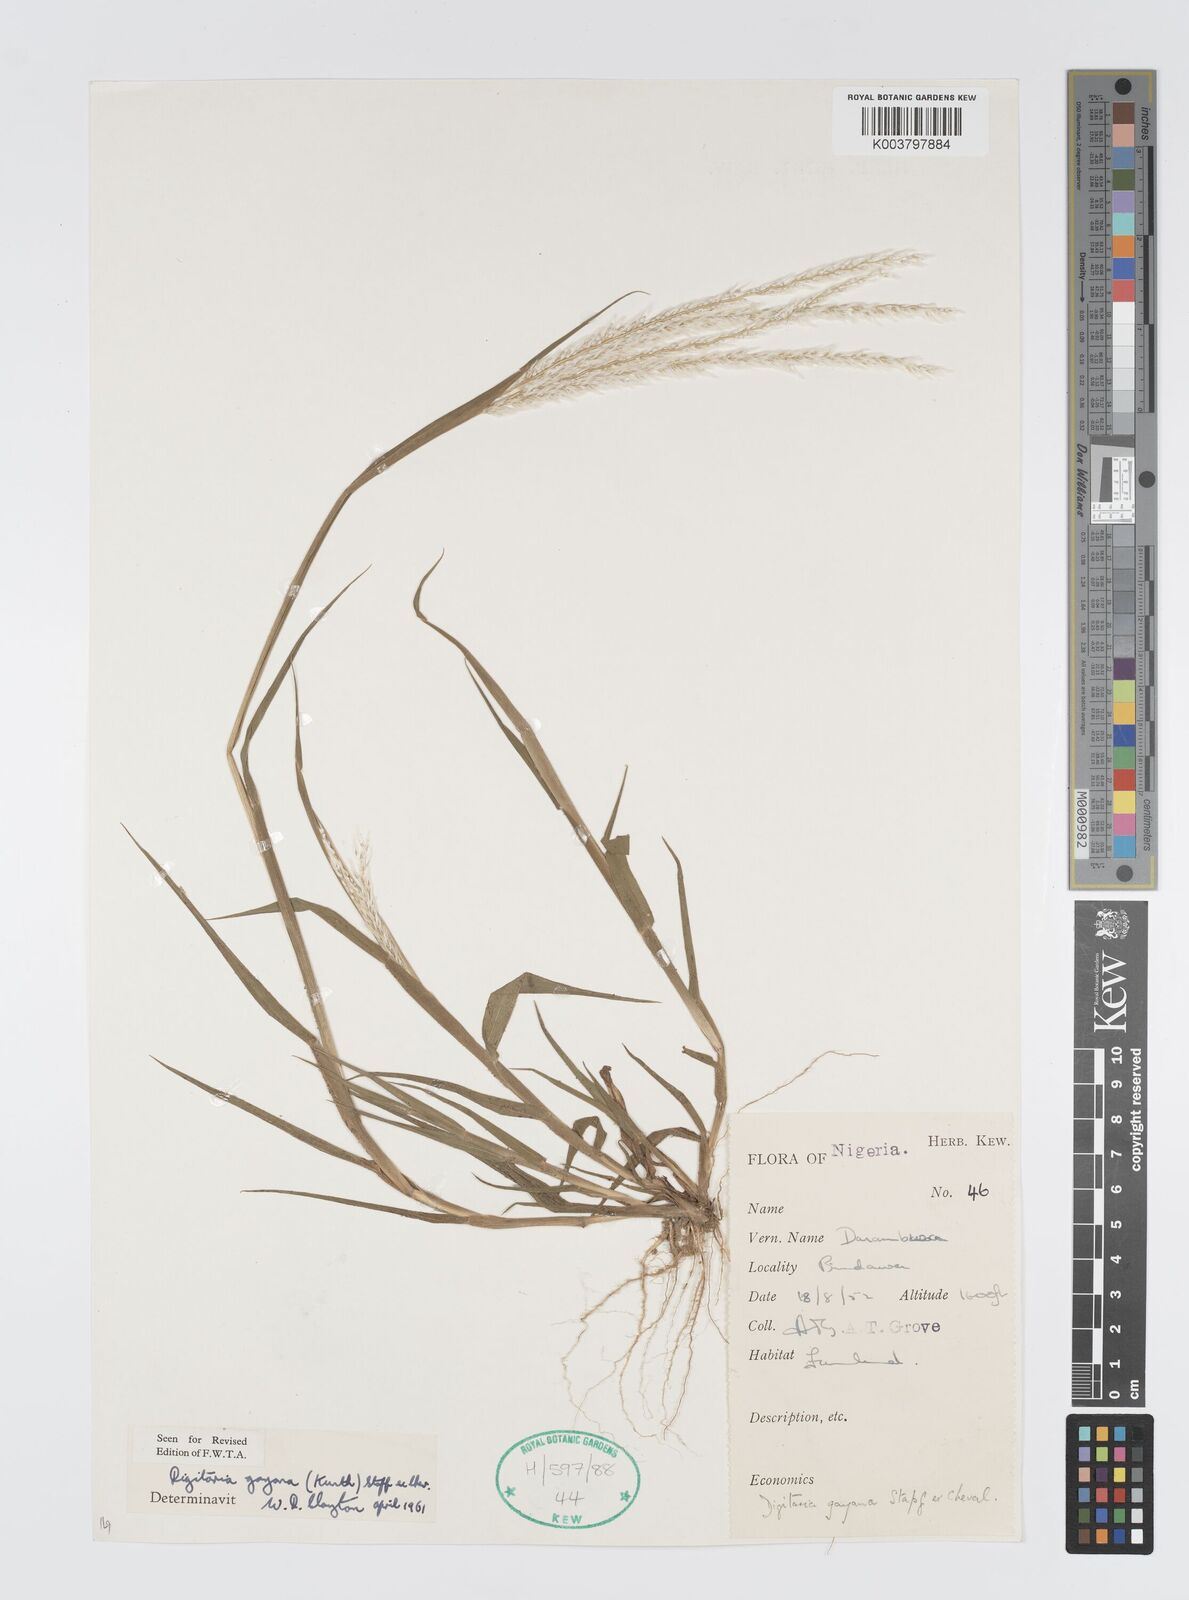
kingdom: Plantae
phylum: Tracheophyta
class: Liliopsida
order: Poales
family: Poaceae
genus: Digitaria
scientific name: Digitaria gayana
